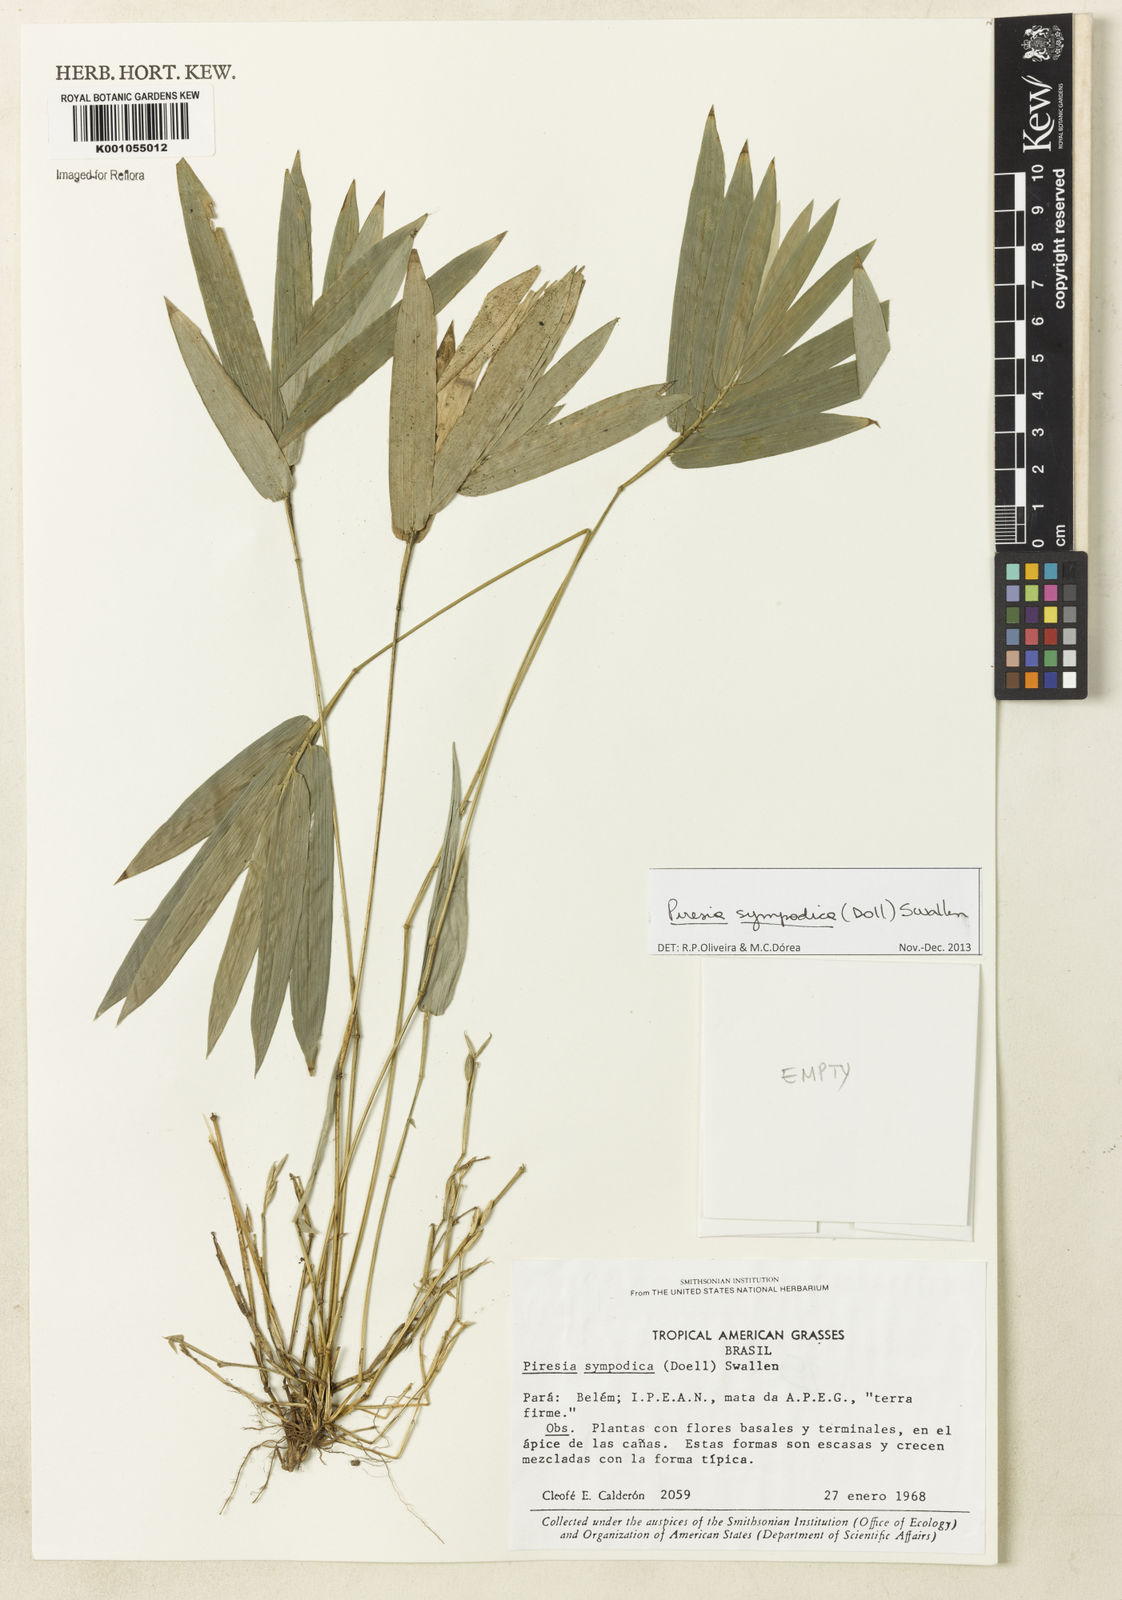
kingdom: Plantae
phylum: Tracheophyta
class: Liliopsida
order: Poales
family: Poaceae
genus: Piresia
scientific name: Piresia
